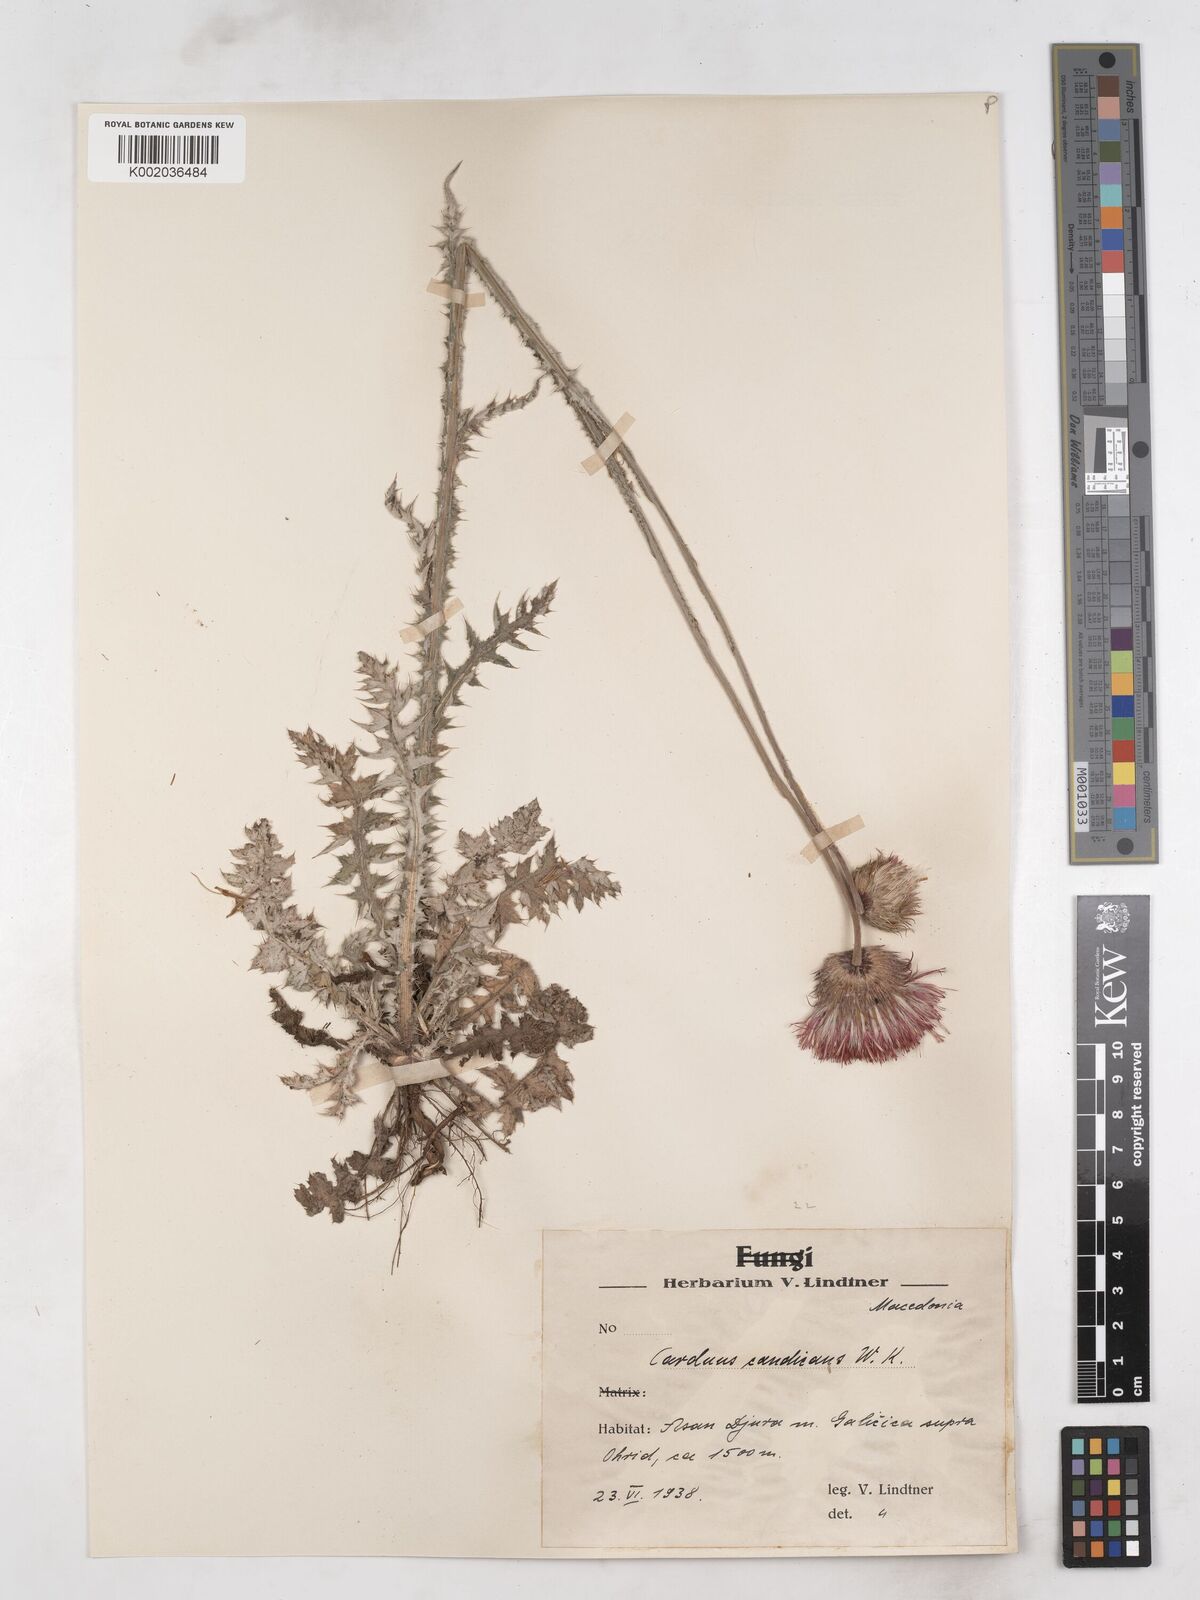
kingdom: Plantae
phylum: Tracheophyta
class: Magnoliopsida
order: Asterales
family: Asteraceae
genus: Carduus
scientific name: Carduus candicans
